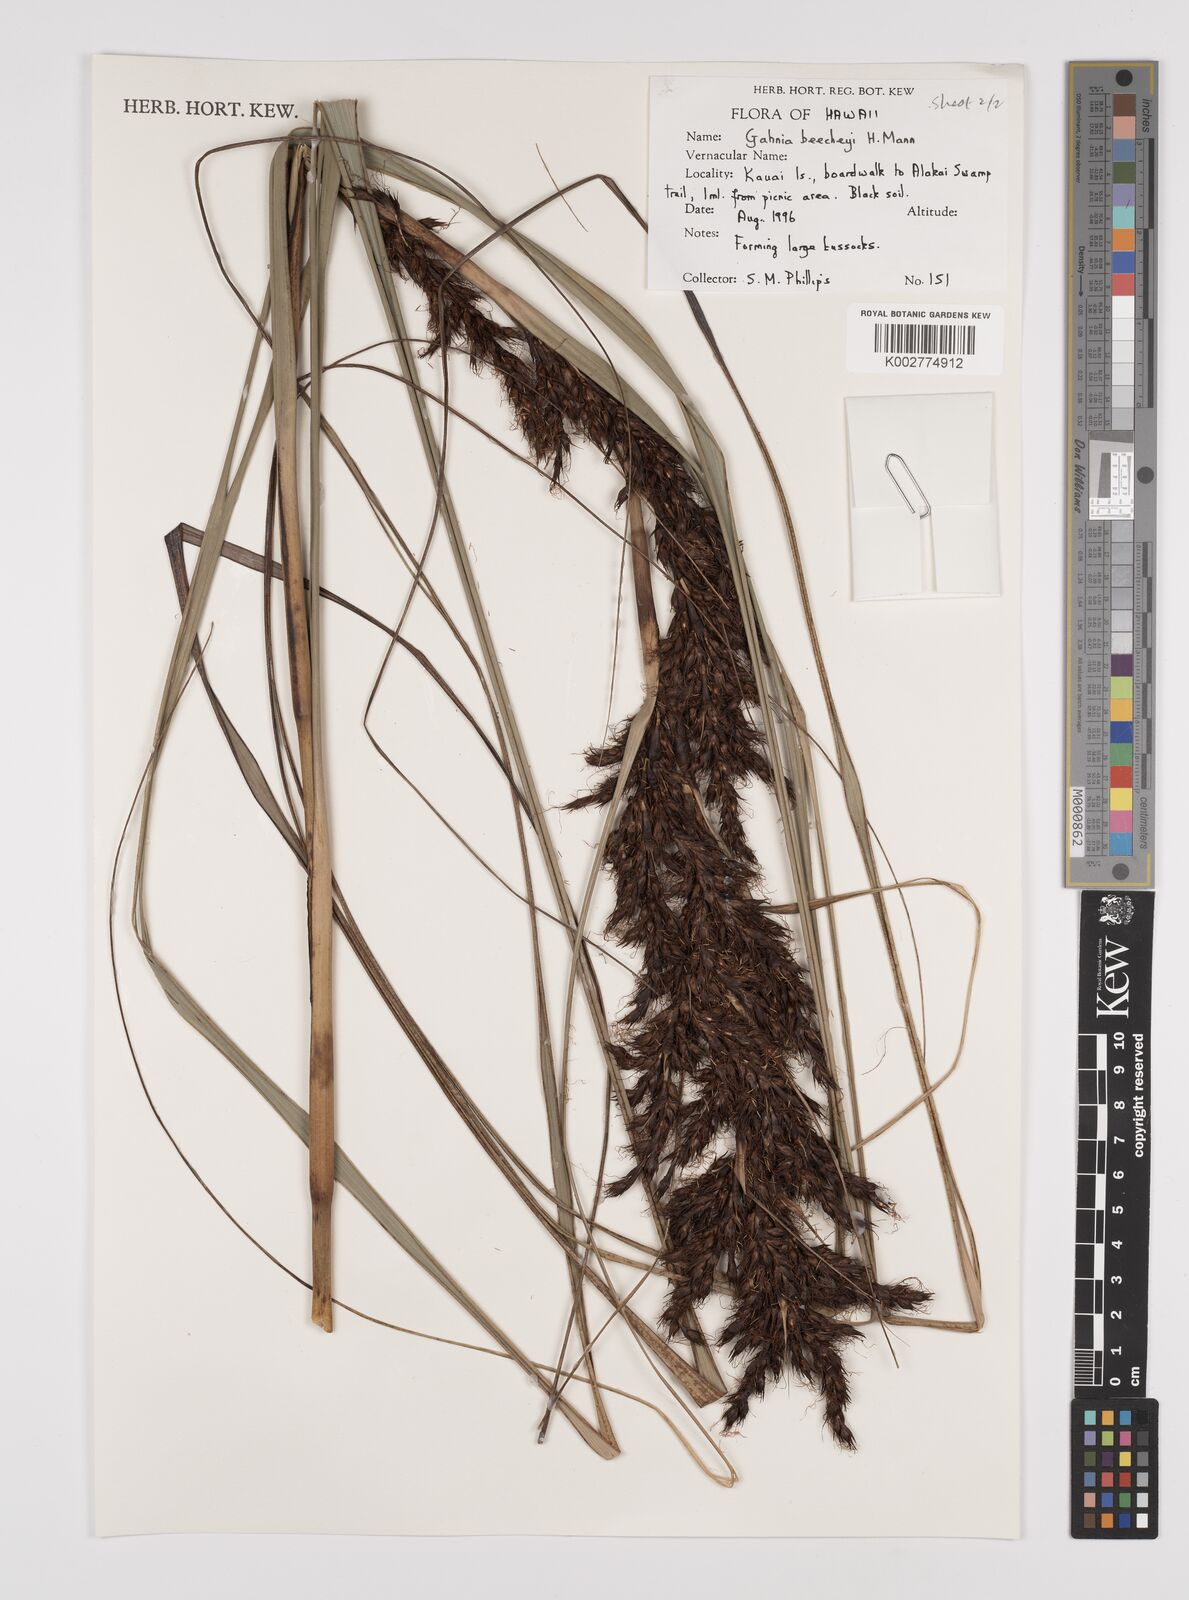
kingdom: Plantae
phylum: Tracheophyta
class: Liliopsida
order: Poales
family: Cyperaceae
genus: Gahnia
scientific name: Gahnia beecheyi
